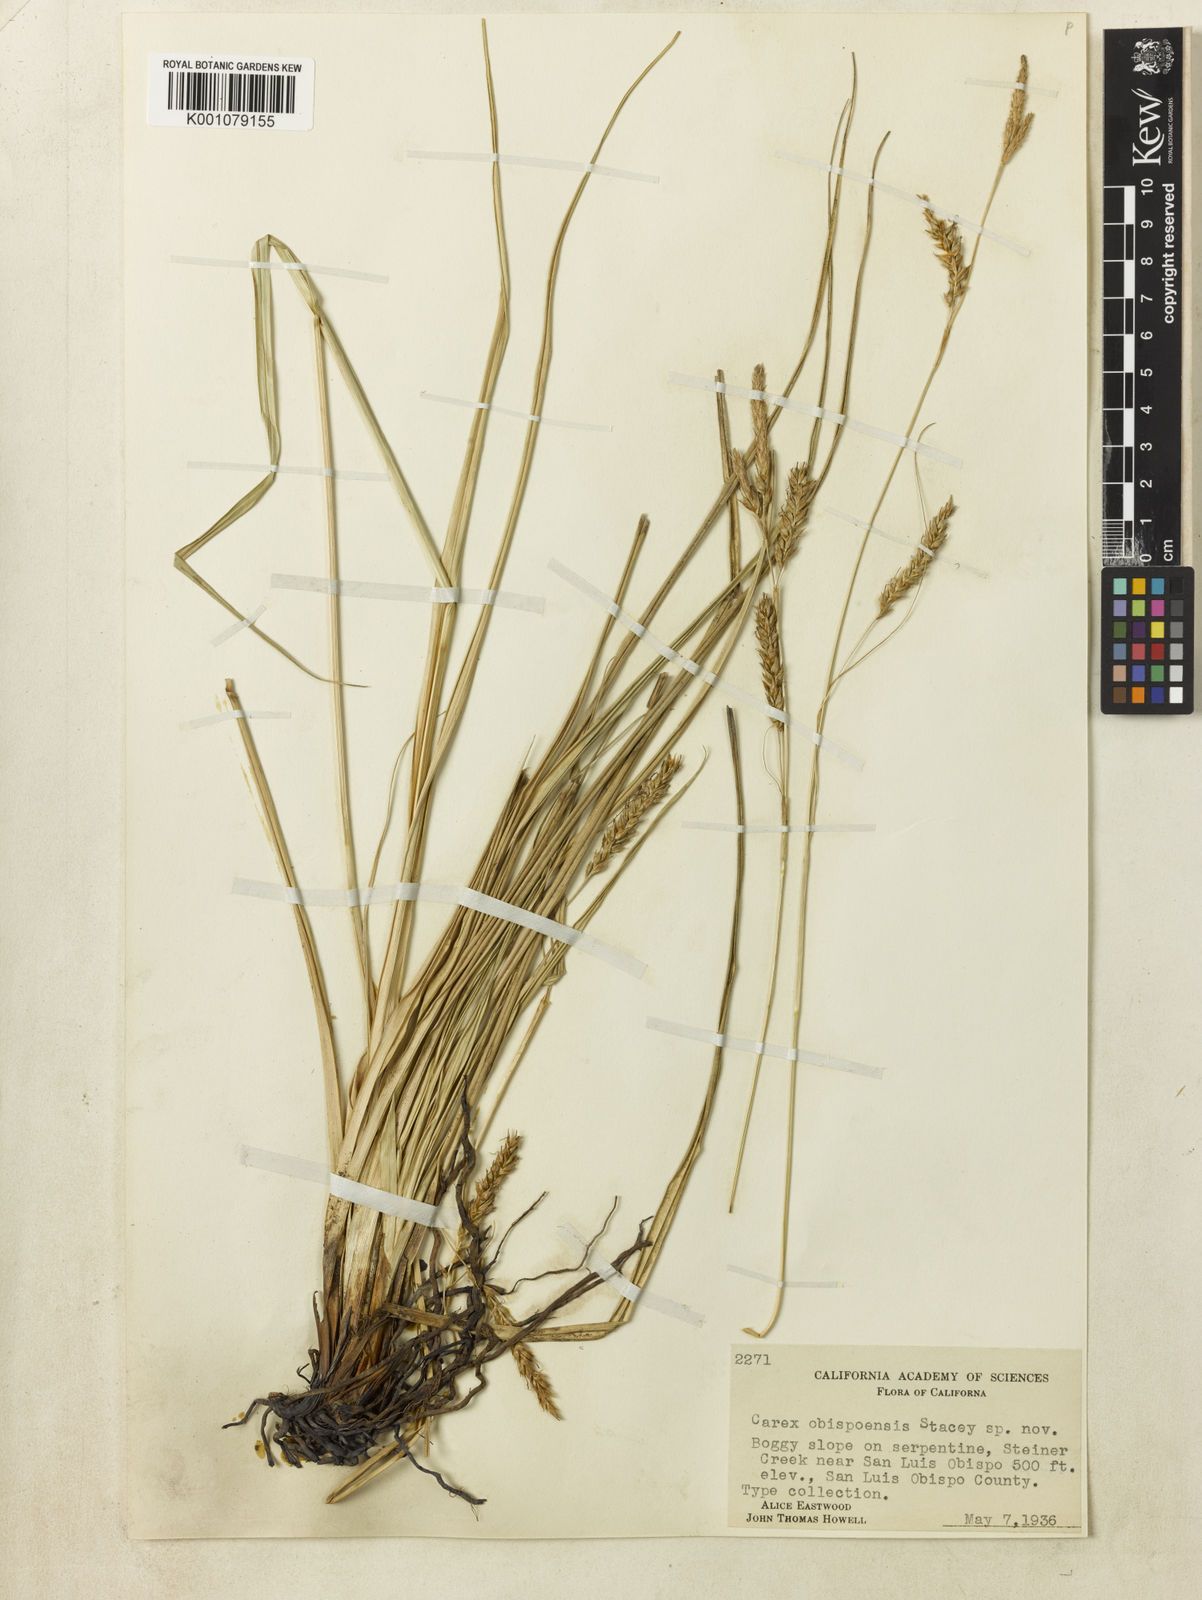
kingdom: Plantae
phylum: Tracheophyta
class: Liliopsida
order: Poales
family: Cyperaceae
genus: Carex
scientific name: Carex obispoensis
